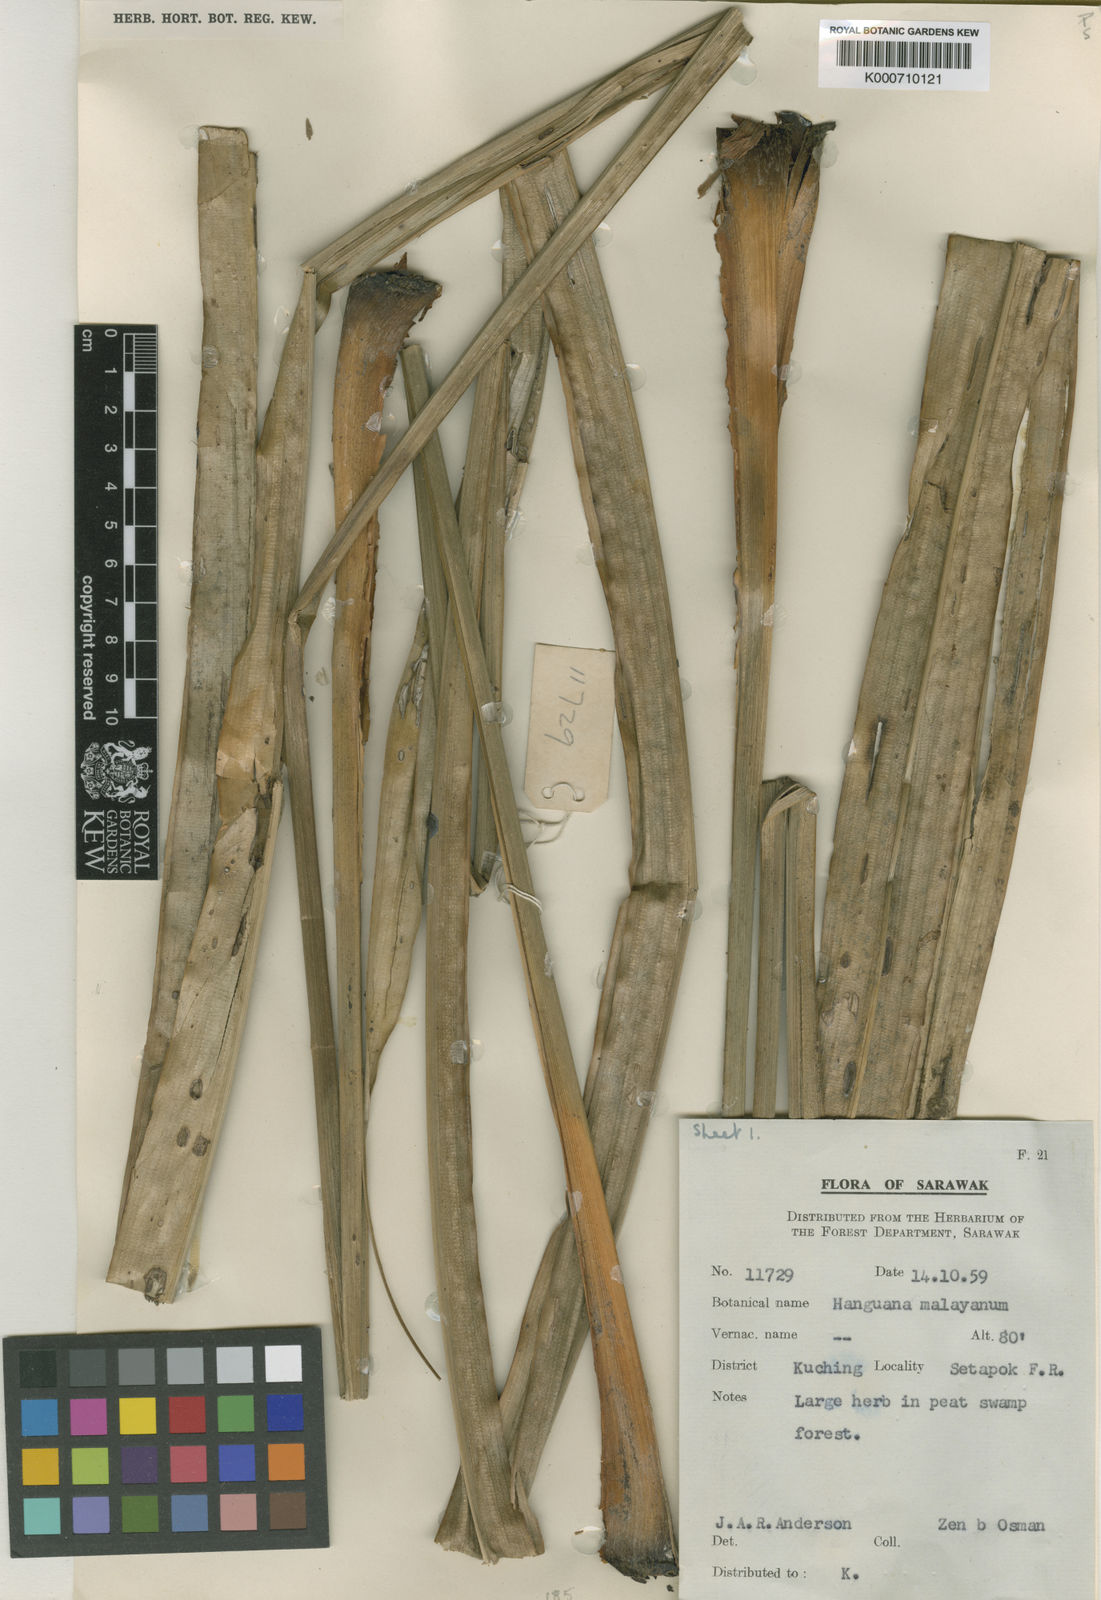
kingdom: Plantae
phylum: Tracheophyta
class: Liliopsida
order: Commelinales
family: Hanguanaceae
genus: Hanguana
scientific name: Hanguana malayana
